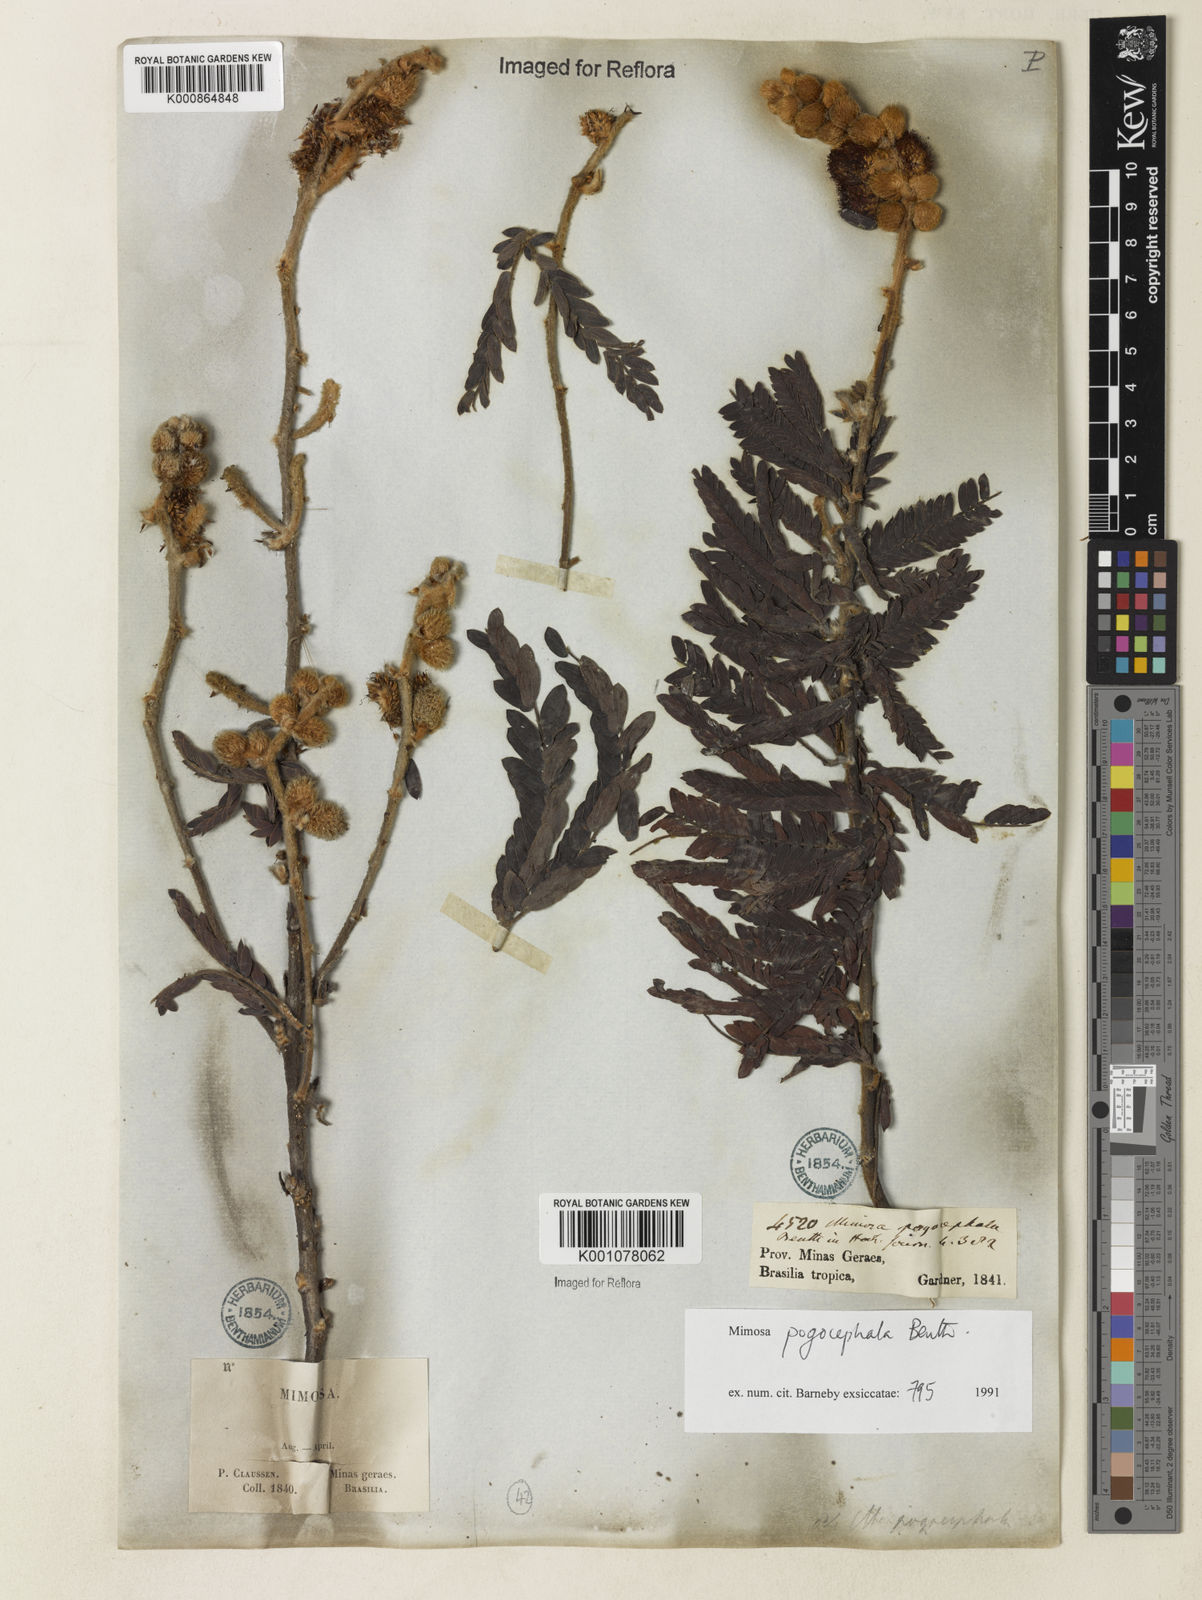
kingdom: Plantae
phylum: Tracheophyta
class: Magnoliopsida
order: Fabales
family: Fabaceae
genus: Mimosa
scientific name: Mimosa pogocephala
